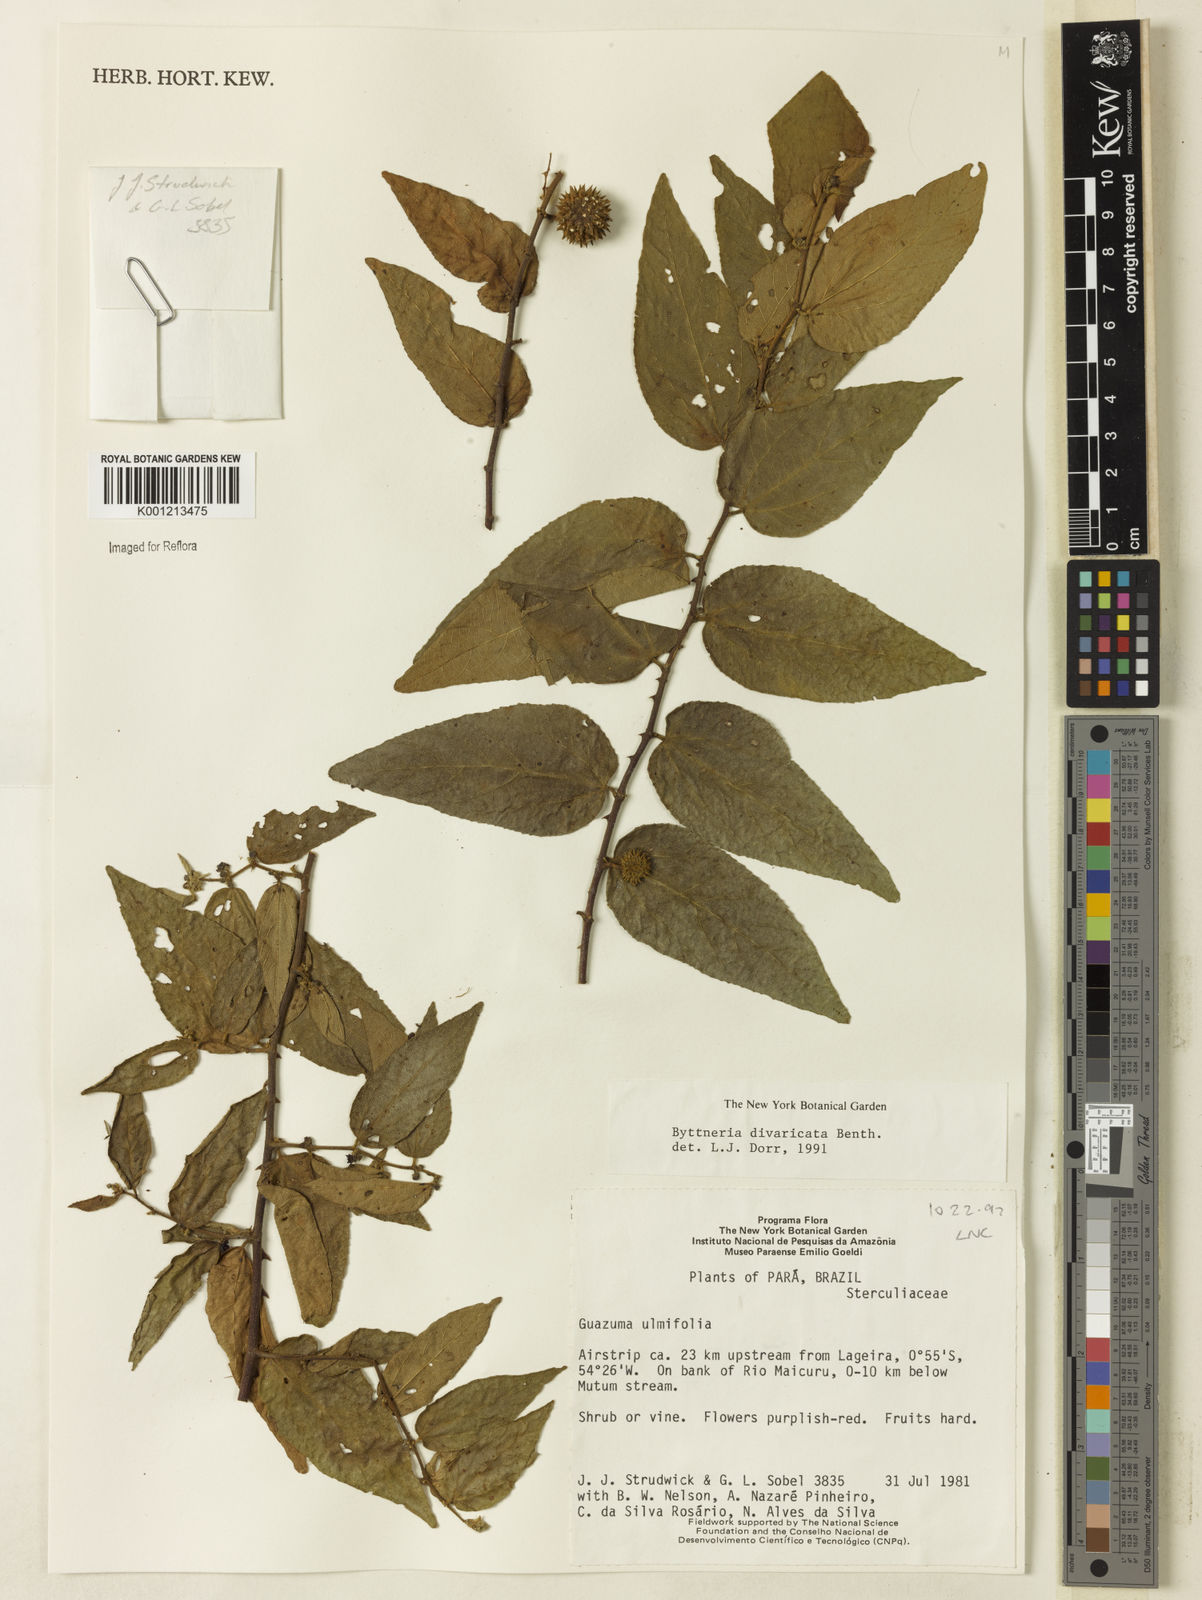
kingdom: Plantae
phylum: Tracheophyta
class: Magnoliopsida
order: Malvales
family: Malvaceae
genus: Byttneria
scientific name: Byttneria divaricata
